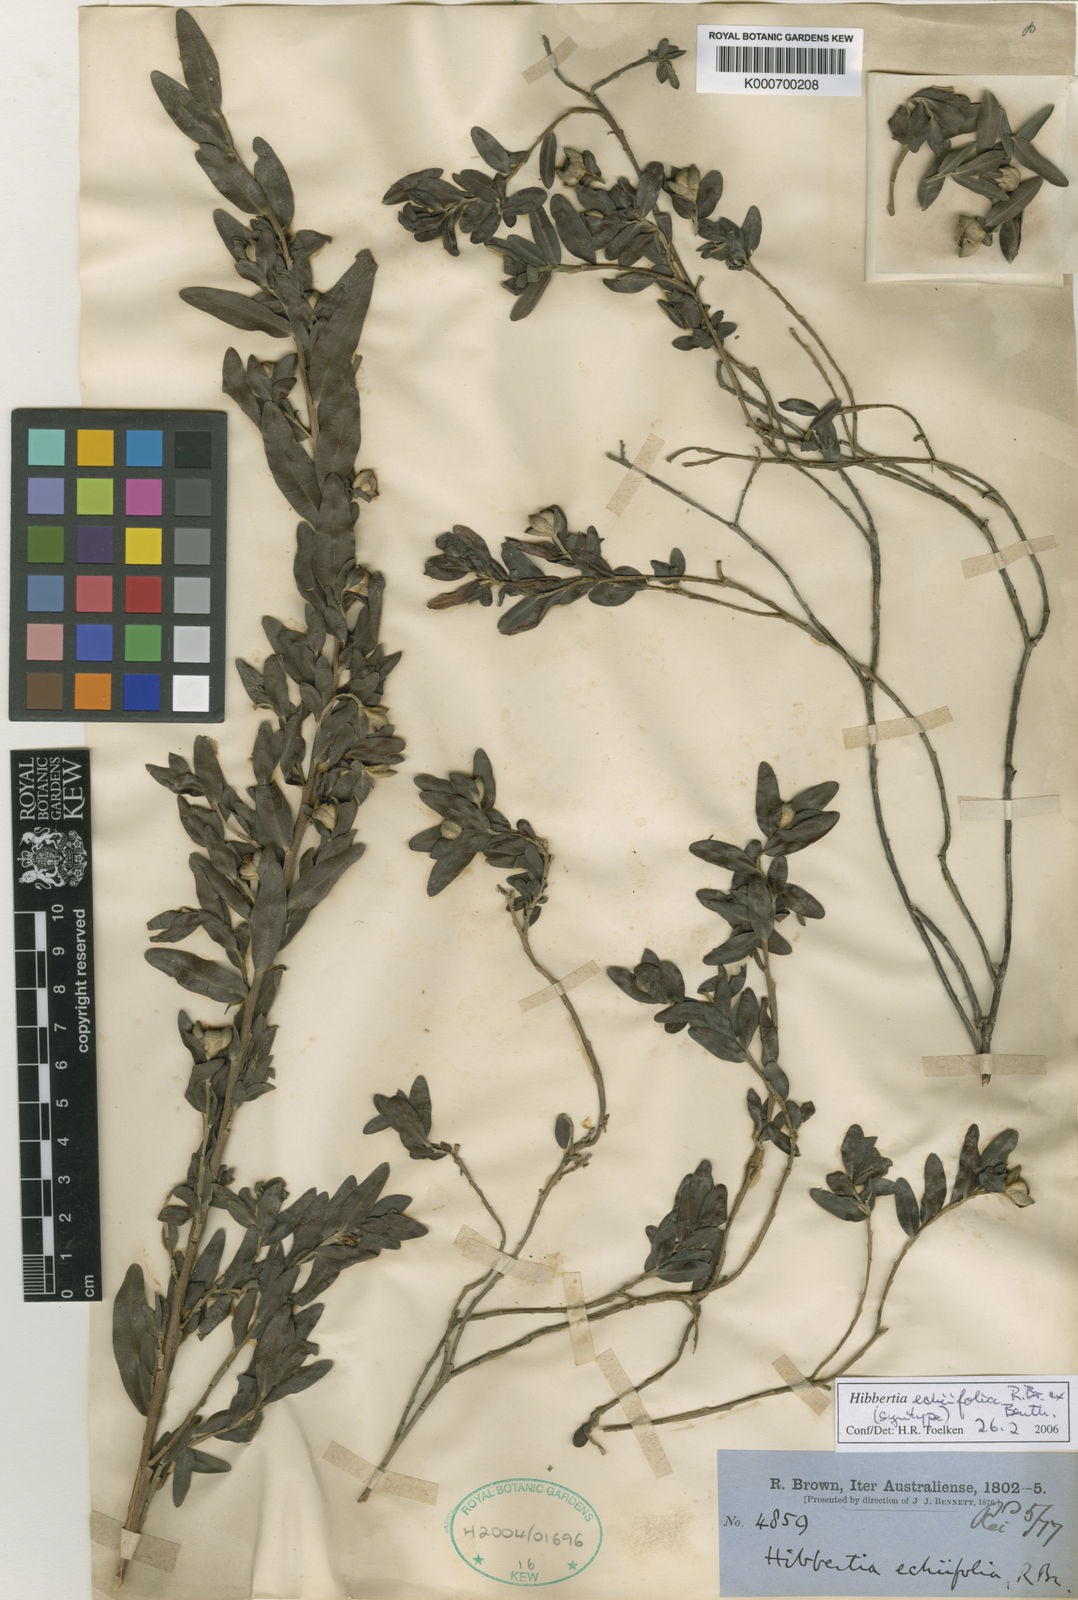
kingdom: Plantae
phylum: Tracheophyta
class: Magnoliopsida
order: Dilleniales
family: Dilleniaceae
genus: Hibbertia
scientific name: Hibbertia echiifolia
